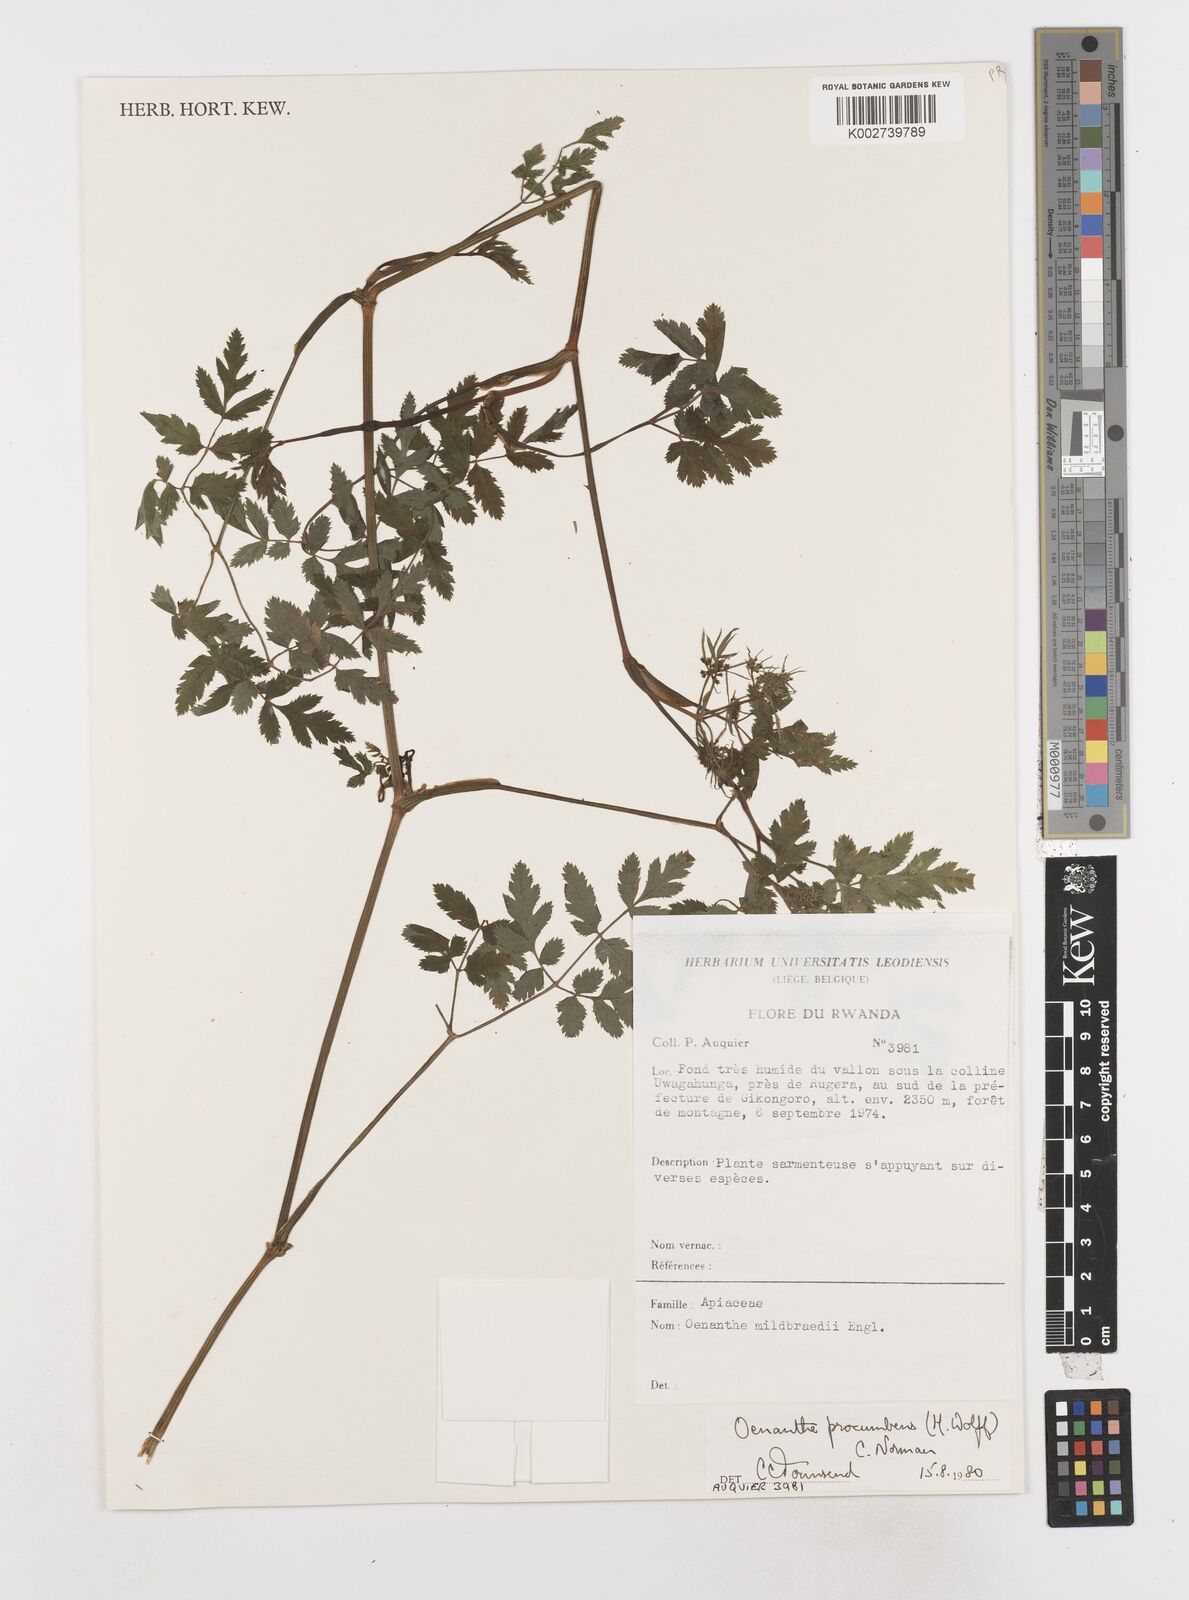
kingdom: Plantae
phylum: Tracheophyta
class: Magnoliopsida
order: Apiales
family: Apiaceae
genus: Oenanthe
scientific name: Oenanthe procumbens
